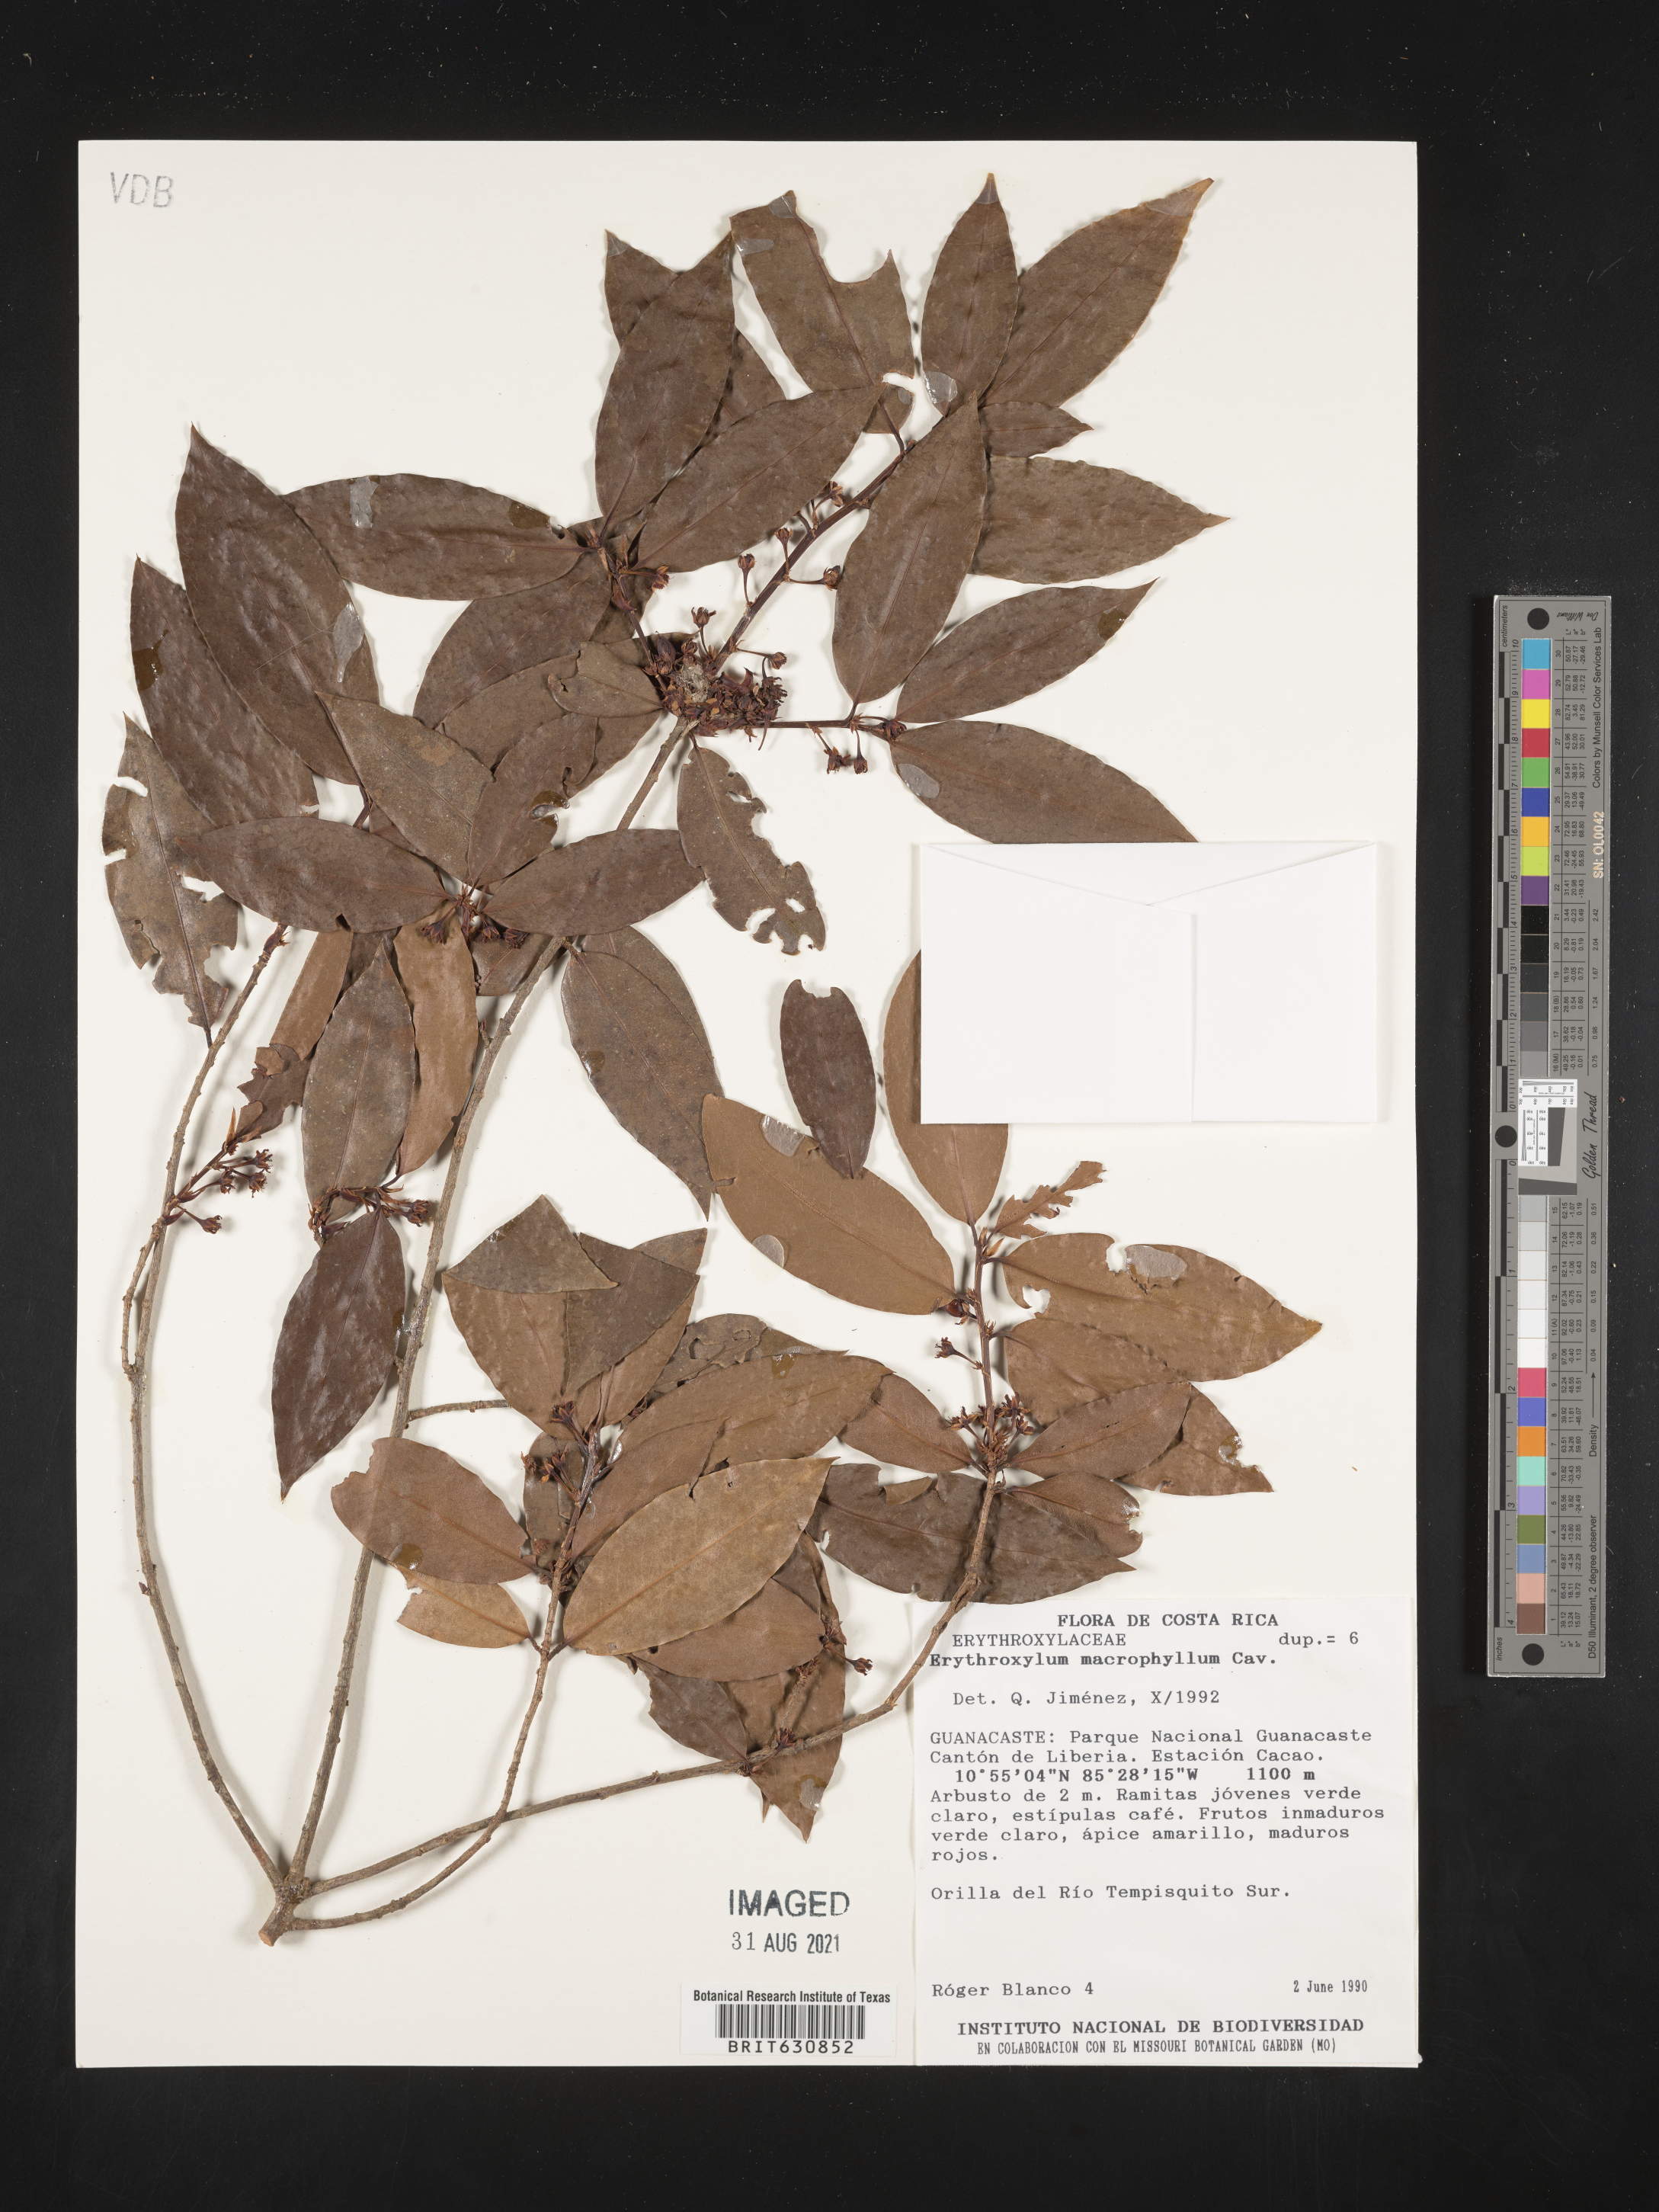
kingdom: Plantae
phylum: Tracheophyta
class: Magnoliopsida
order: Malpighiales
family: Erythroxylaceae
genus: Erythroxylum
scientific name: Erythroxylum
